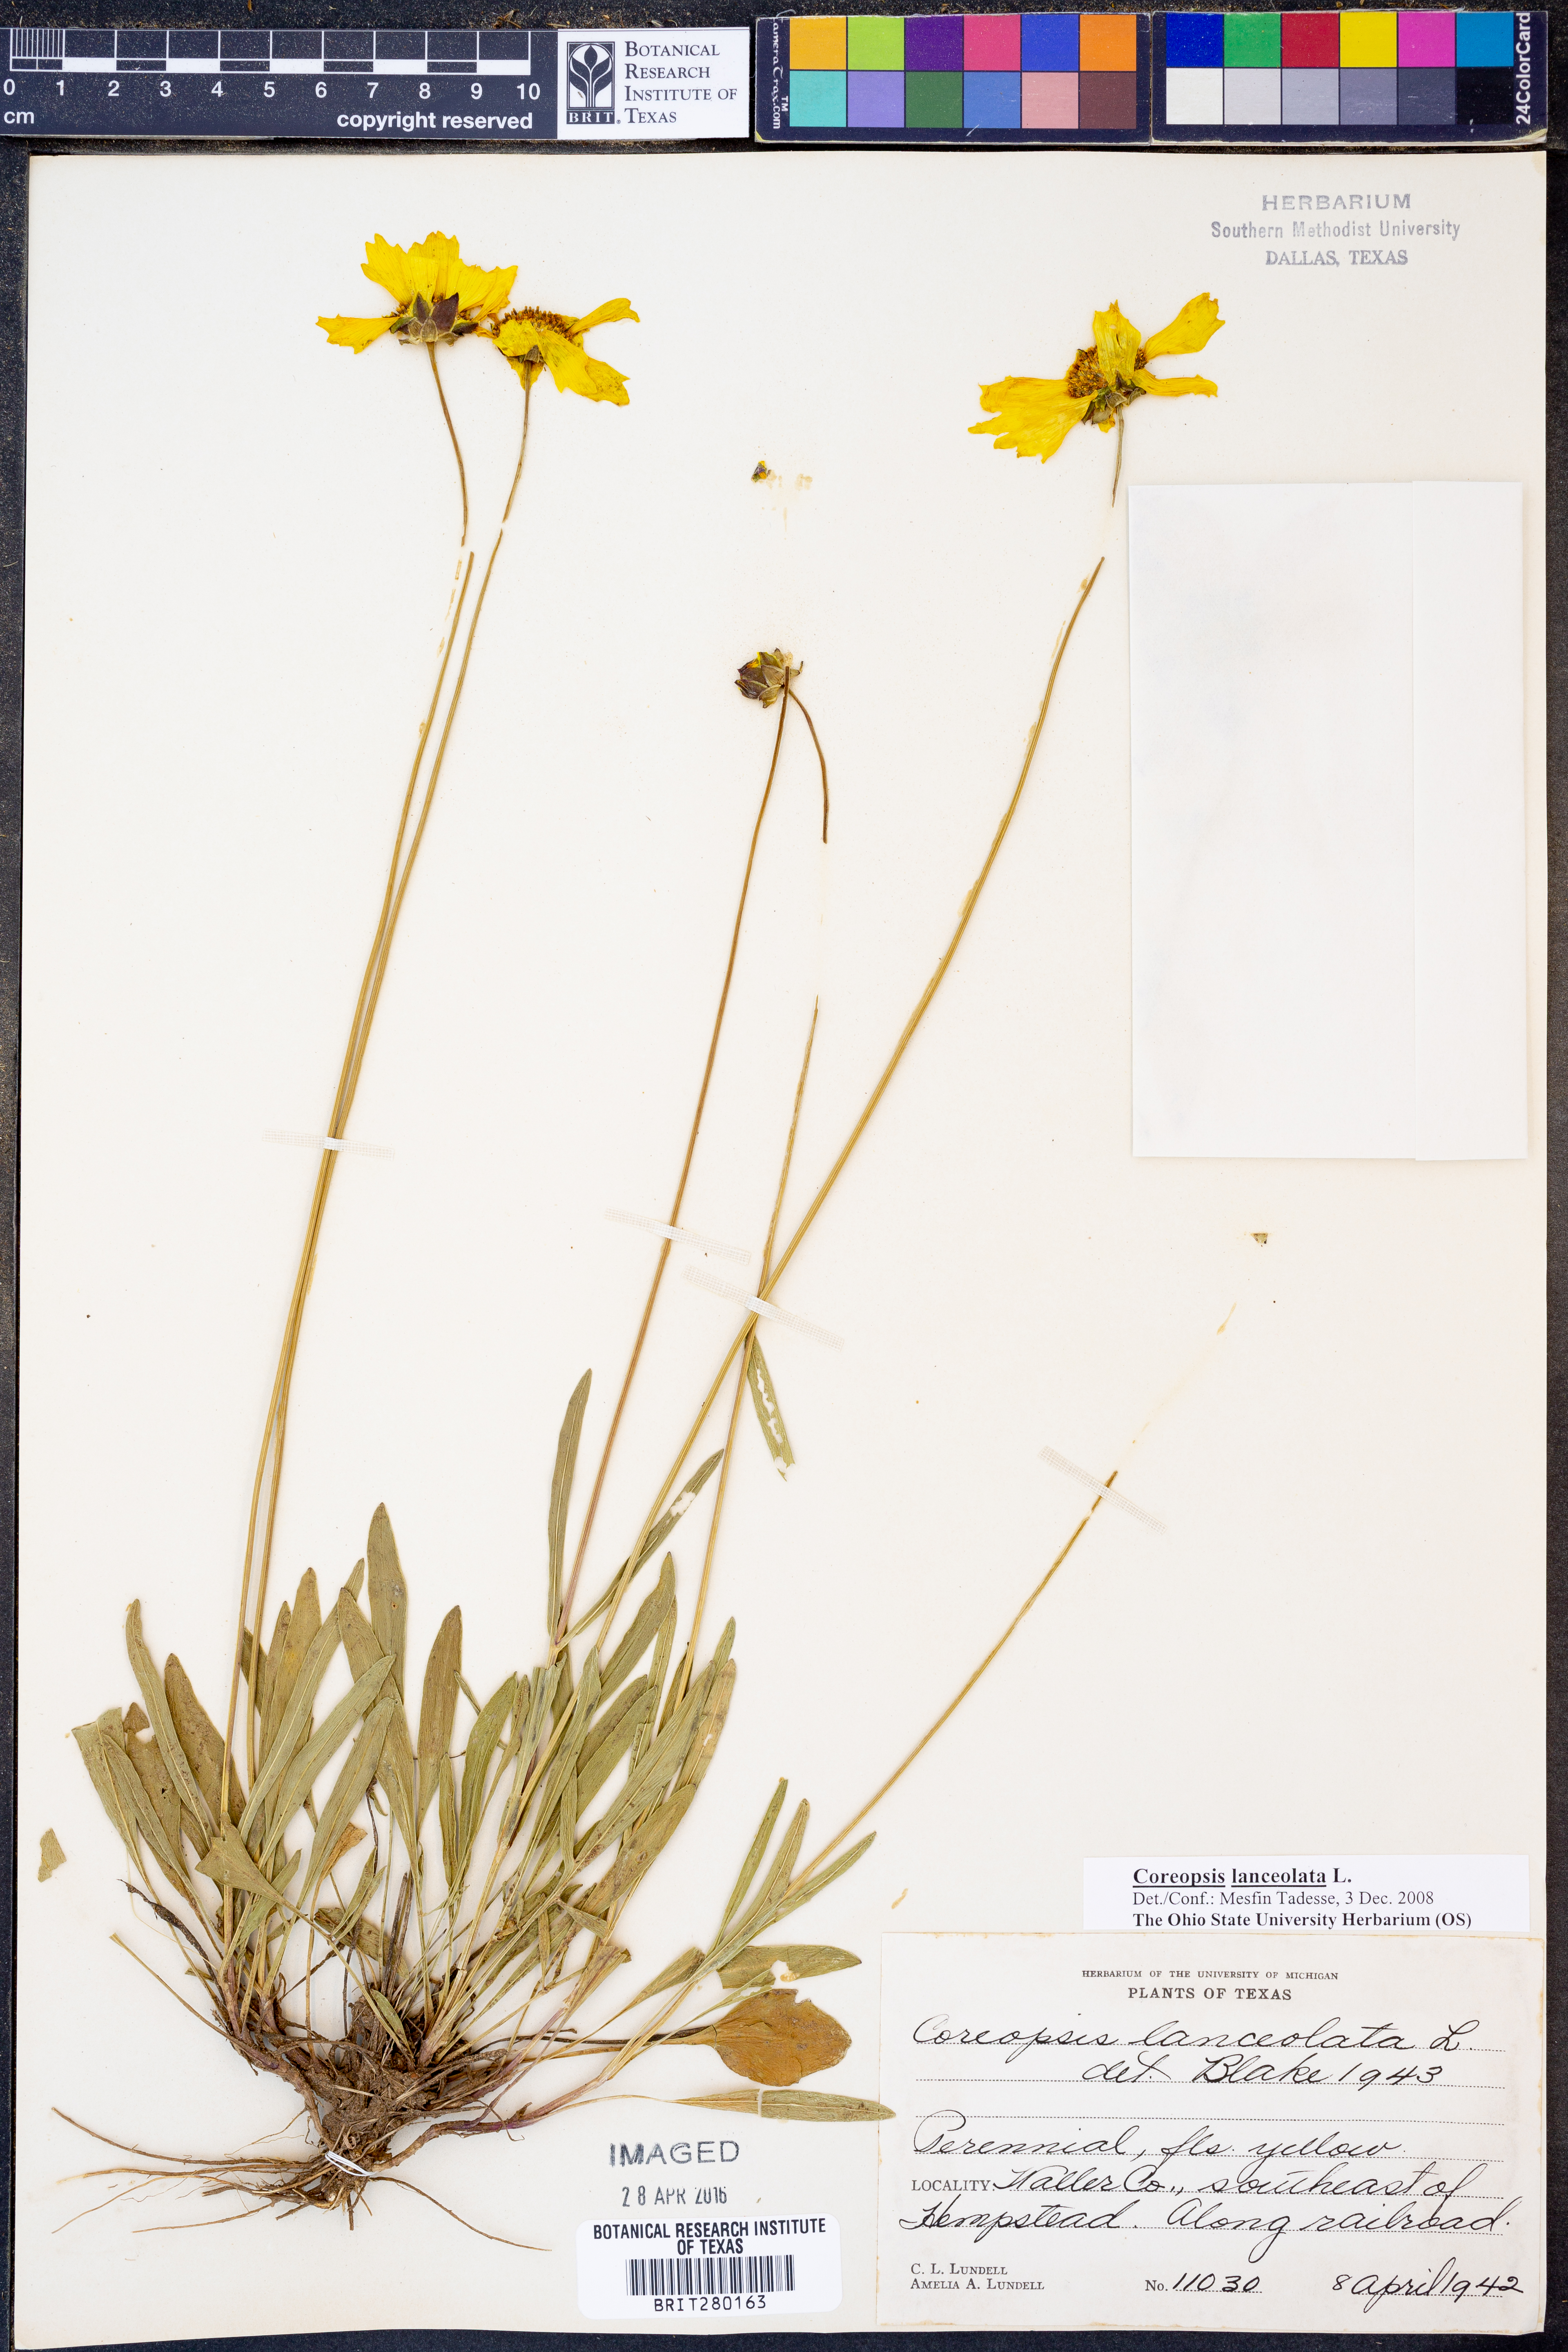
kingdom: Plantae
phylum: Tracheophyta
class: Magnoliopsida
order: Asterales
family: Asteraceae
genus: Coreopsis
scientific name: Coreopsis lanceolata
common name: Garden coreopsis
